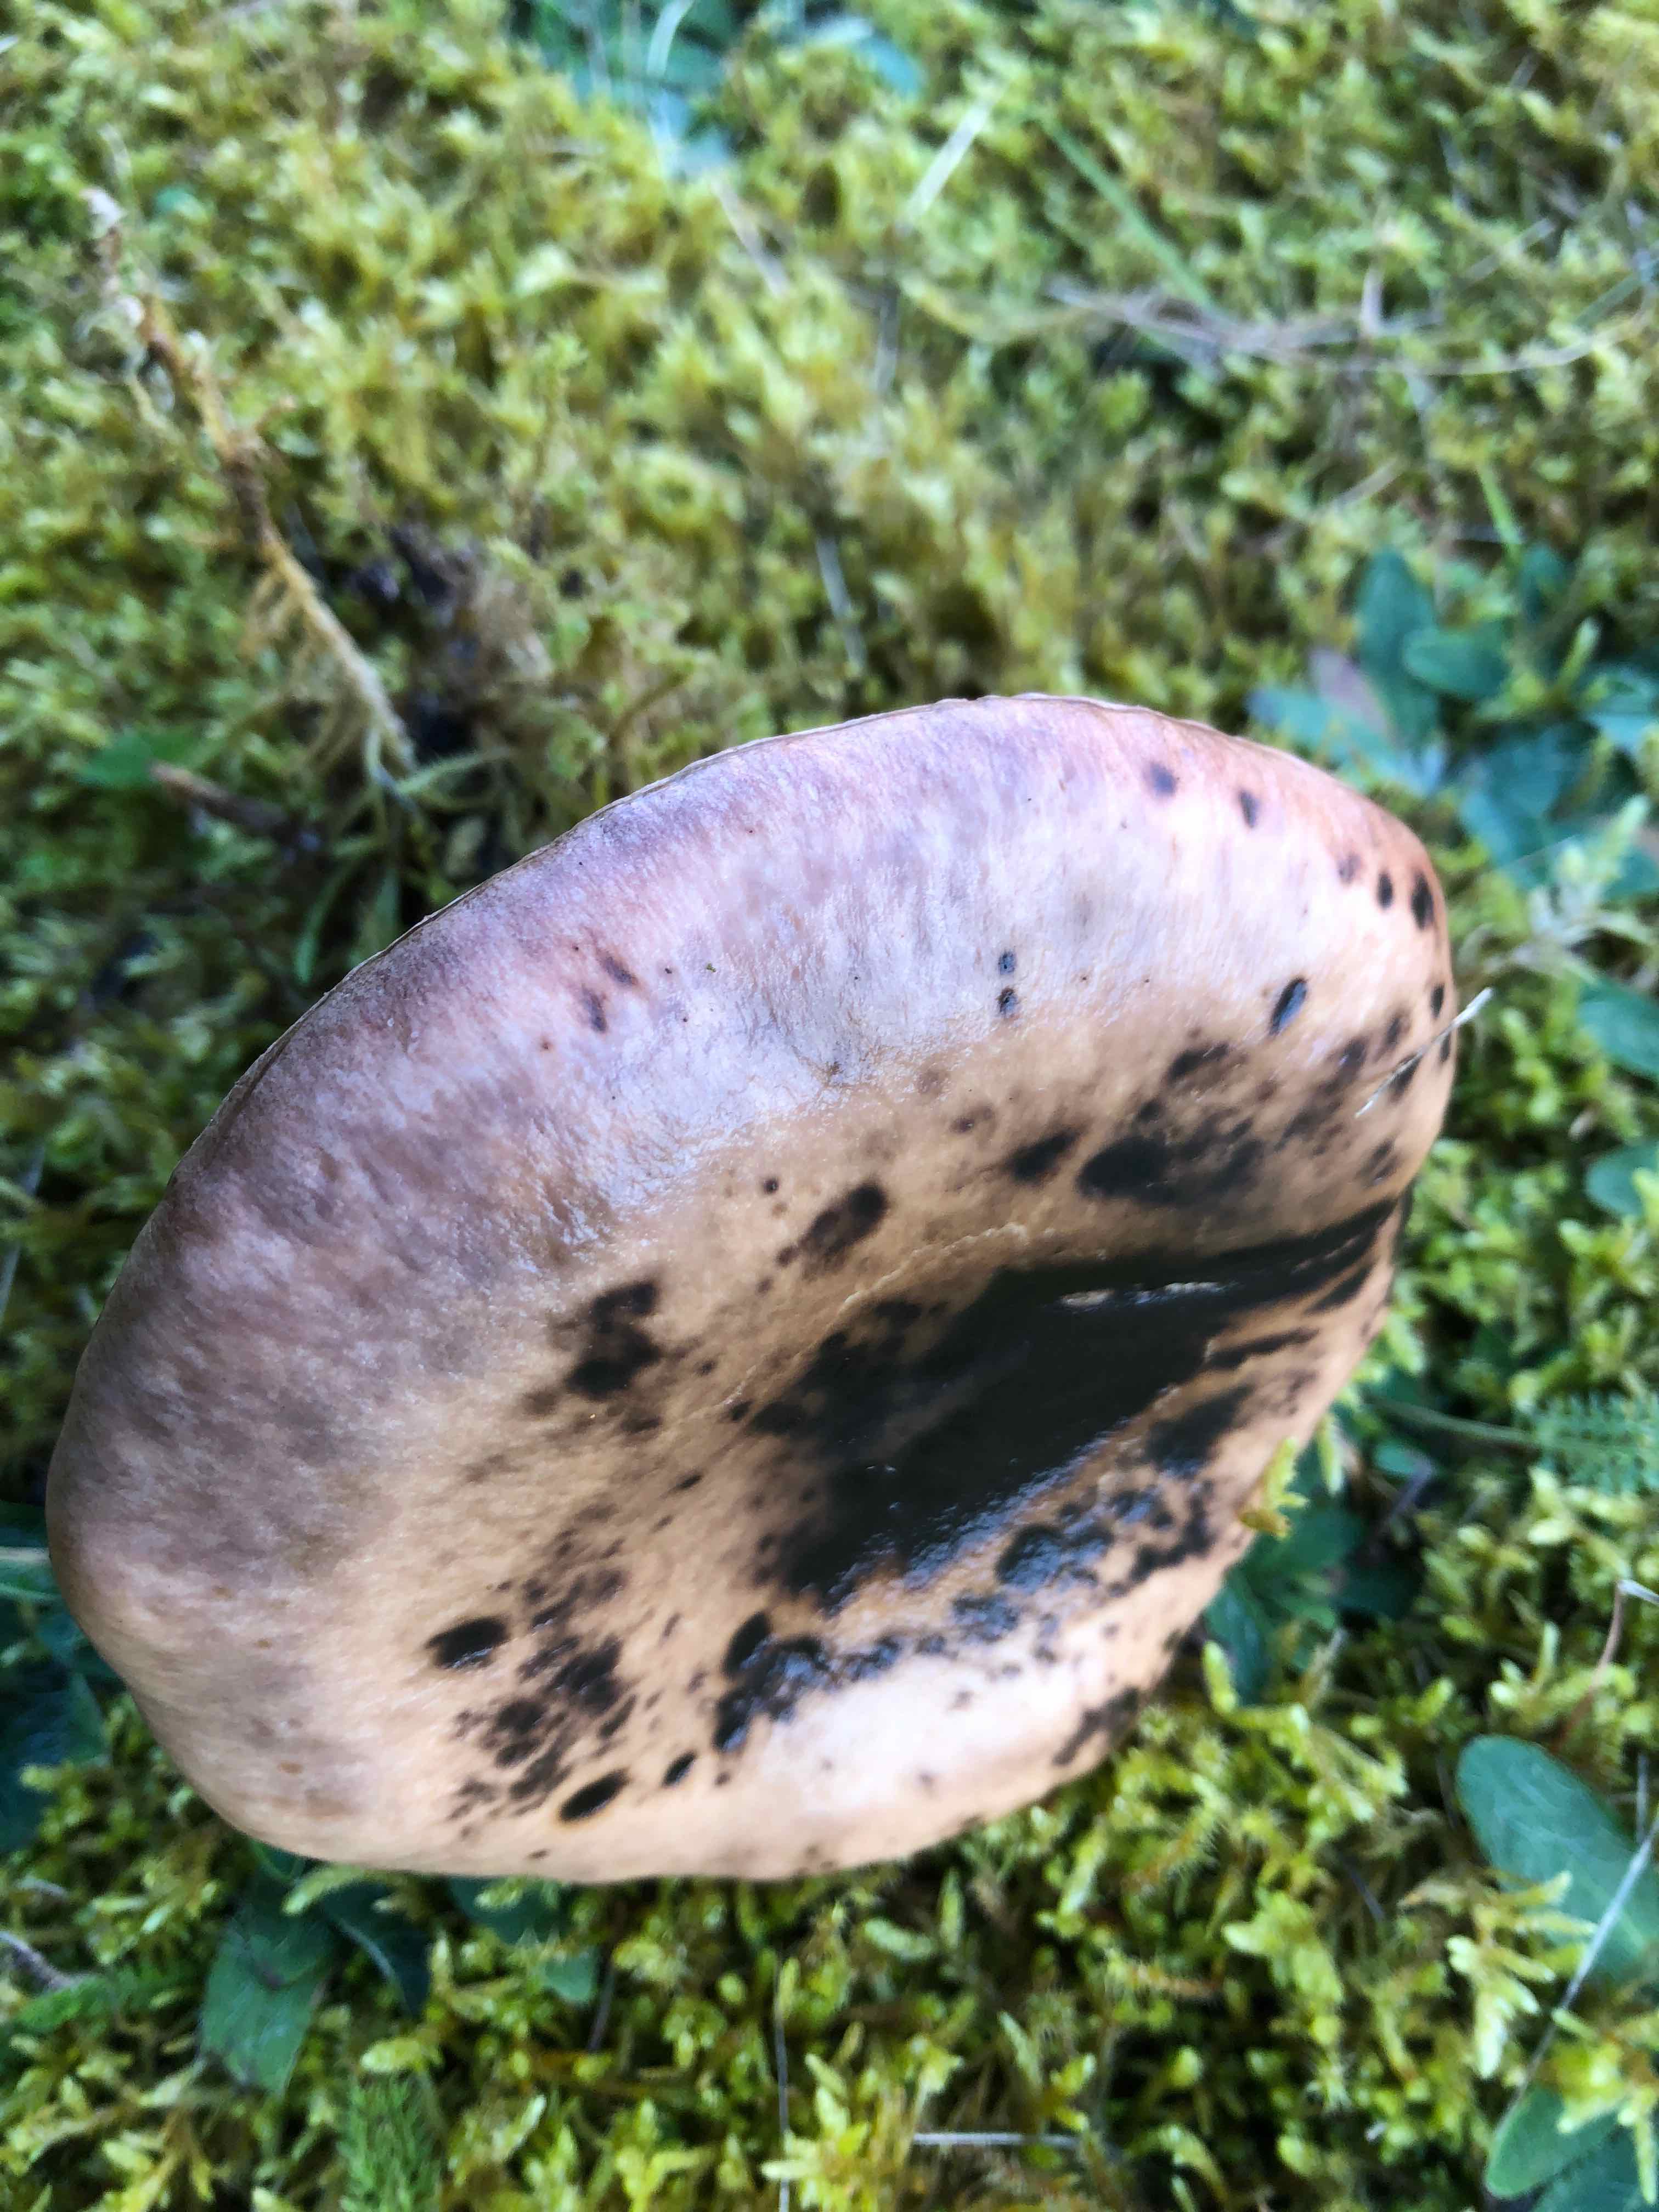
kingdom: Fungi
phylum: Basidiomycota
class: Agaricomycetes
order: Boletales
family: Gomphidiaceae
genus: Gomphidius
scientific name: Gomphidius glutinosus
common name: grå slimslør
